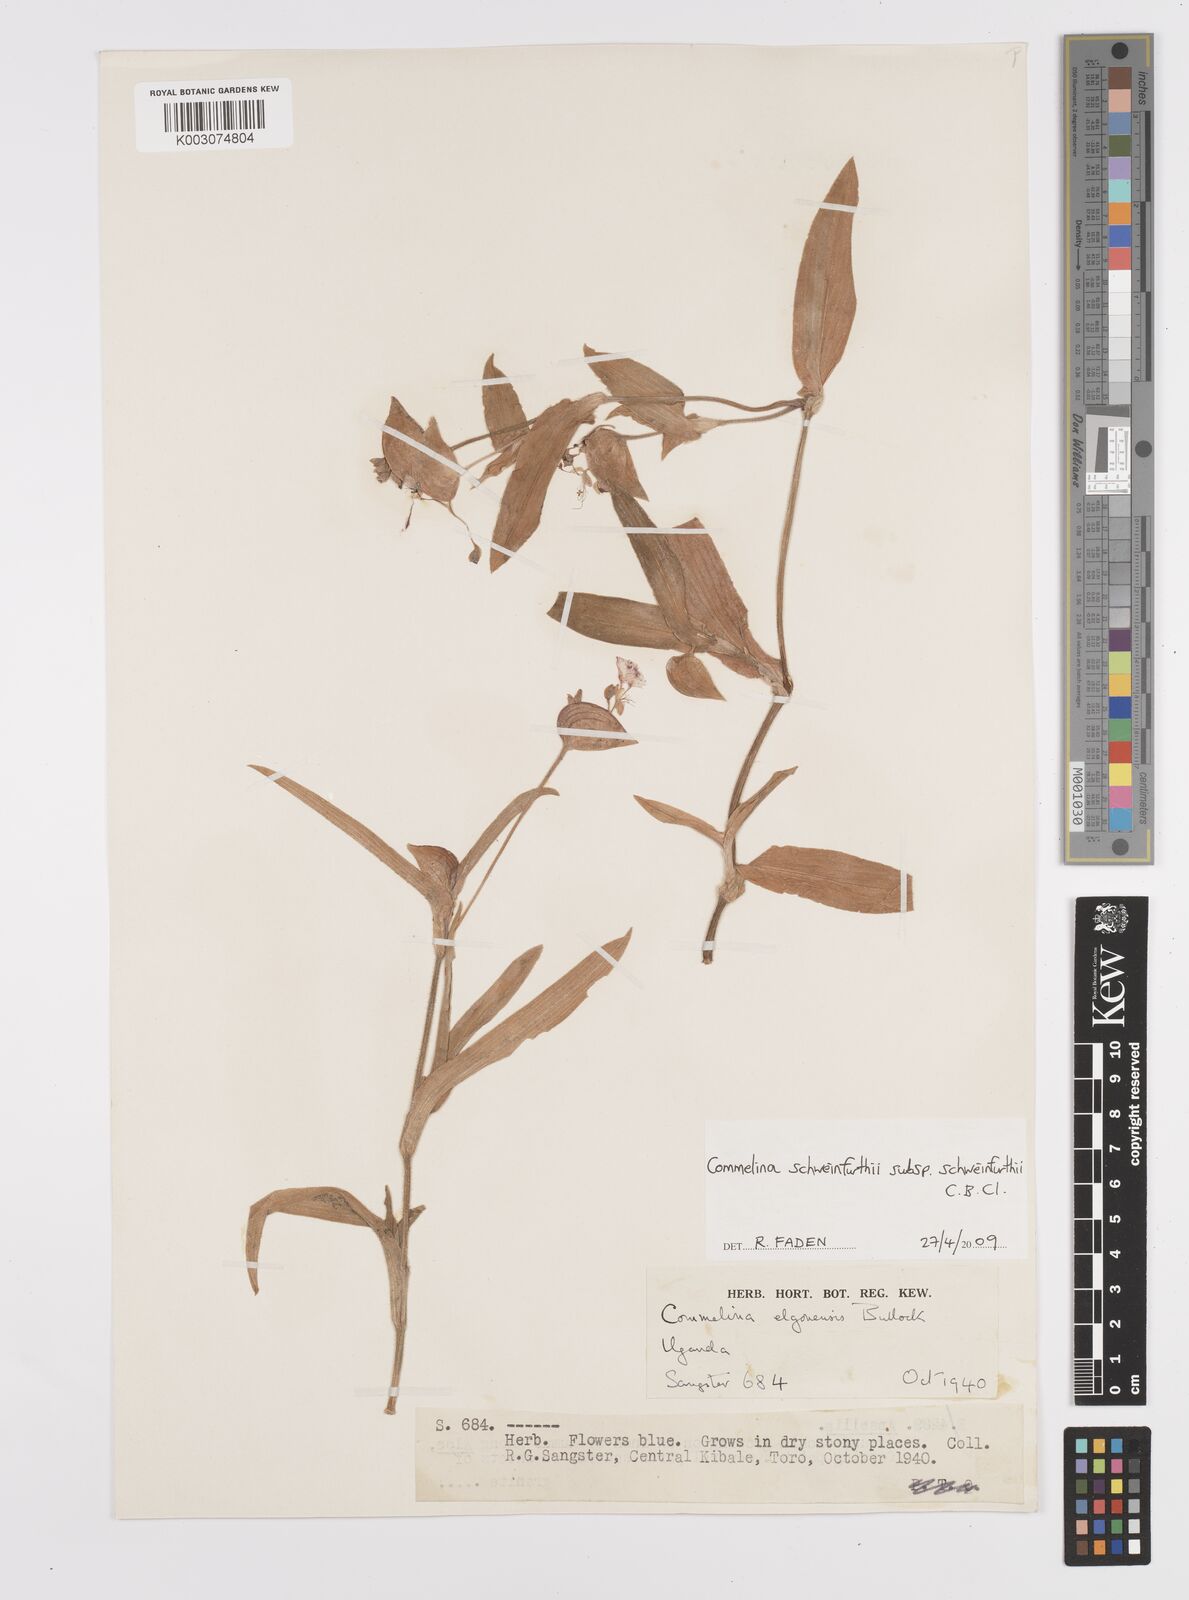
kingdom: Plantae
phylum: Tracheophyta
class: Liliopsida
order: Commelinales
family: Commelinaceae
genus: Commelina
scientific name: Commelina schweinfurthii
